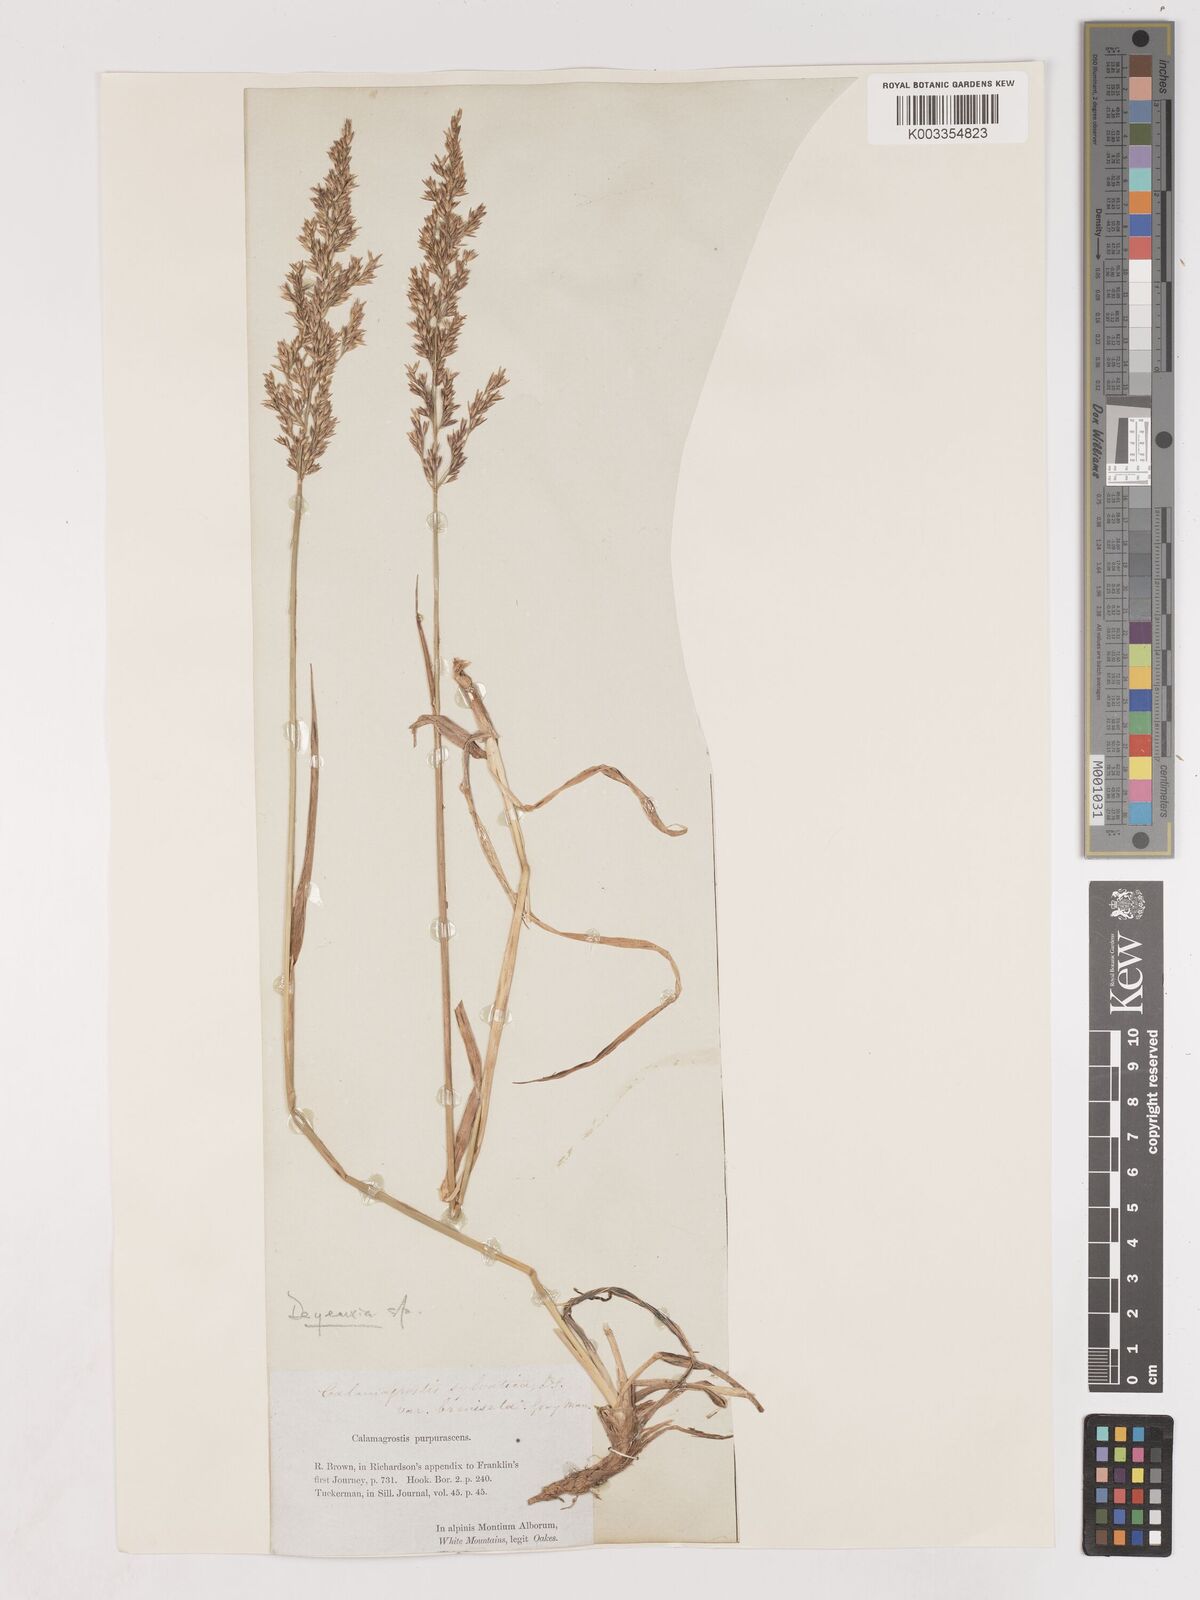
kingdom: Plantae
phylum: Tracheophyta
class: Liliopsida
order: Poales
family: Poaceae
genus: Calamagrostis
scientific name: Calamagrostis
